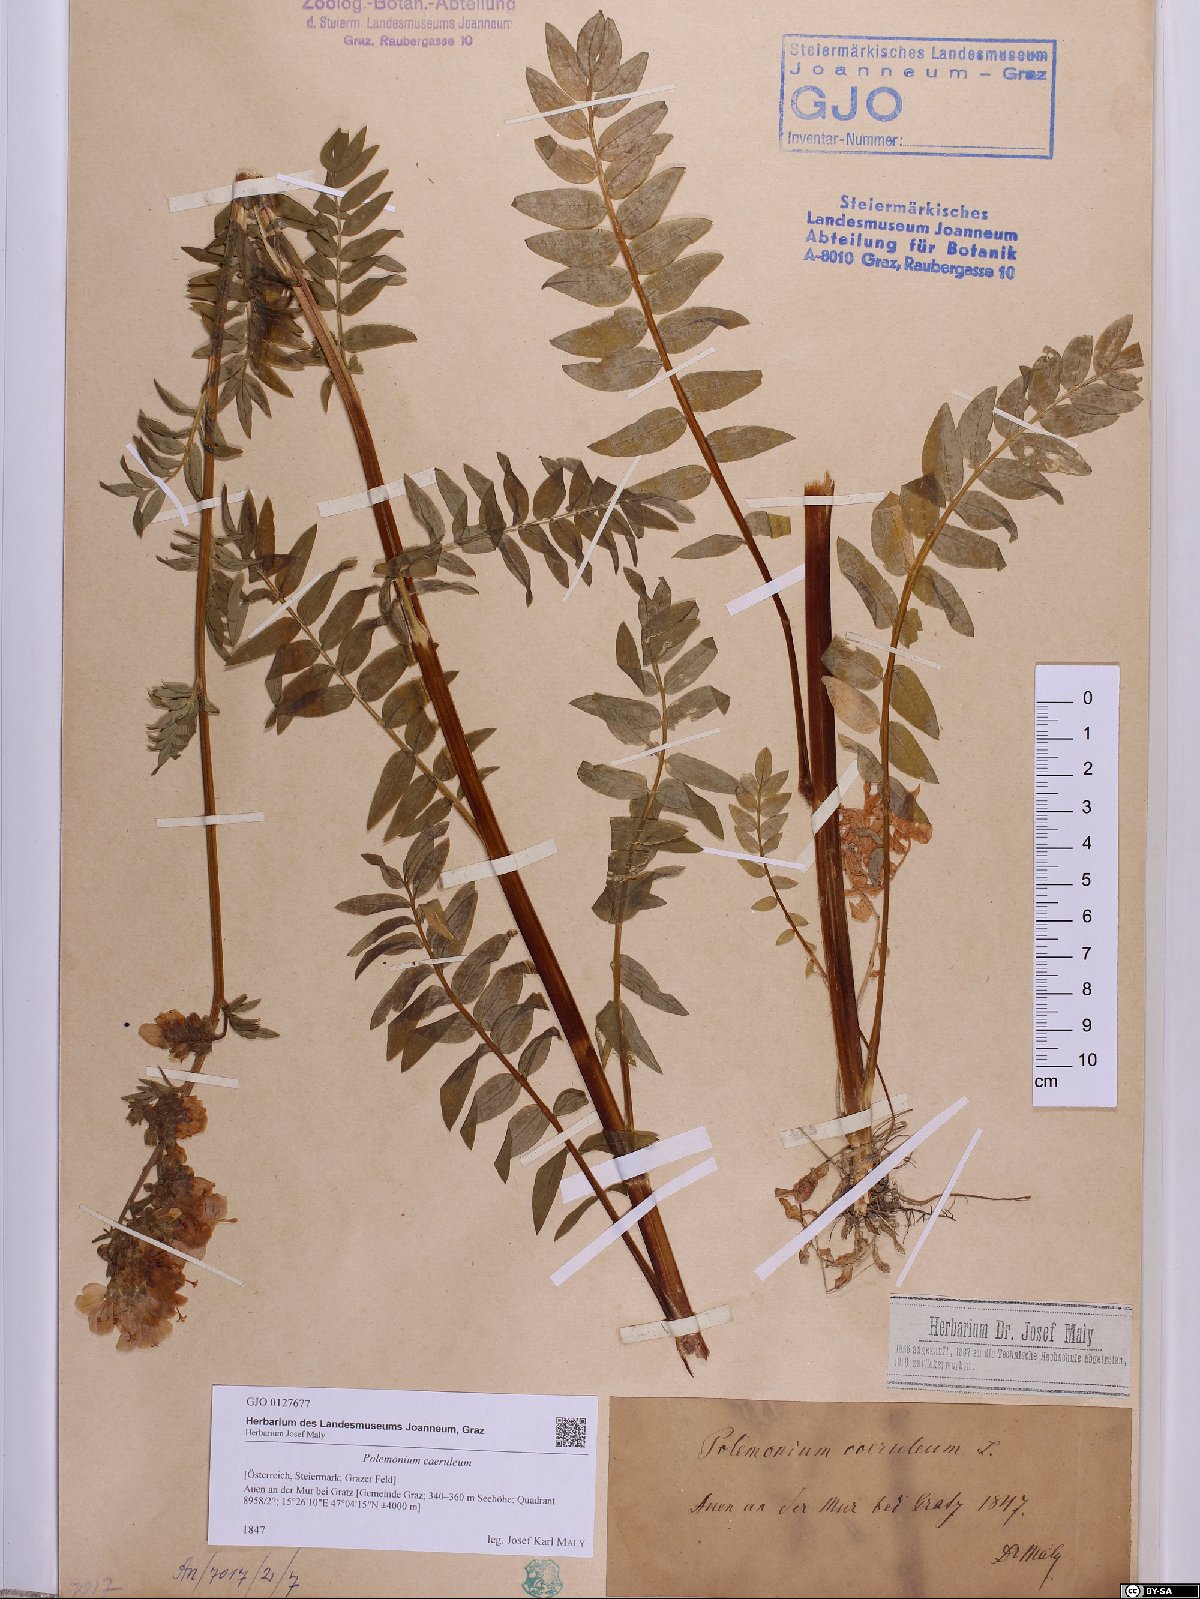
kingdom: Plantae
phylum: Tracheophyta
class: Magnoliopsida
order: Ericales
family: Polemoniaceae
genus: Polemonium
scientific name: Polemonium caeruleum
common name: Jacob's-ladder
